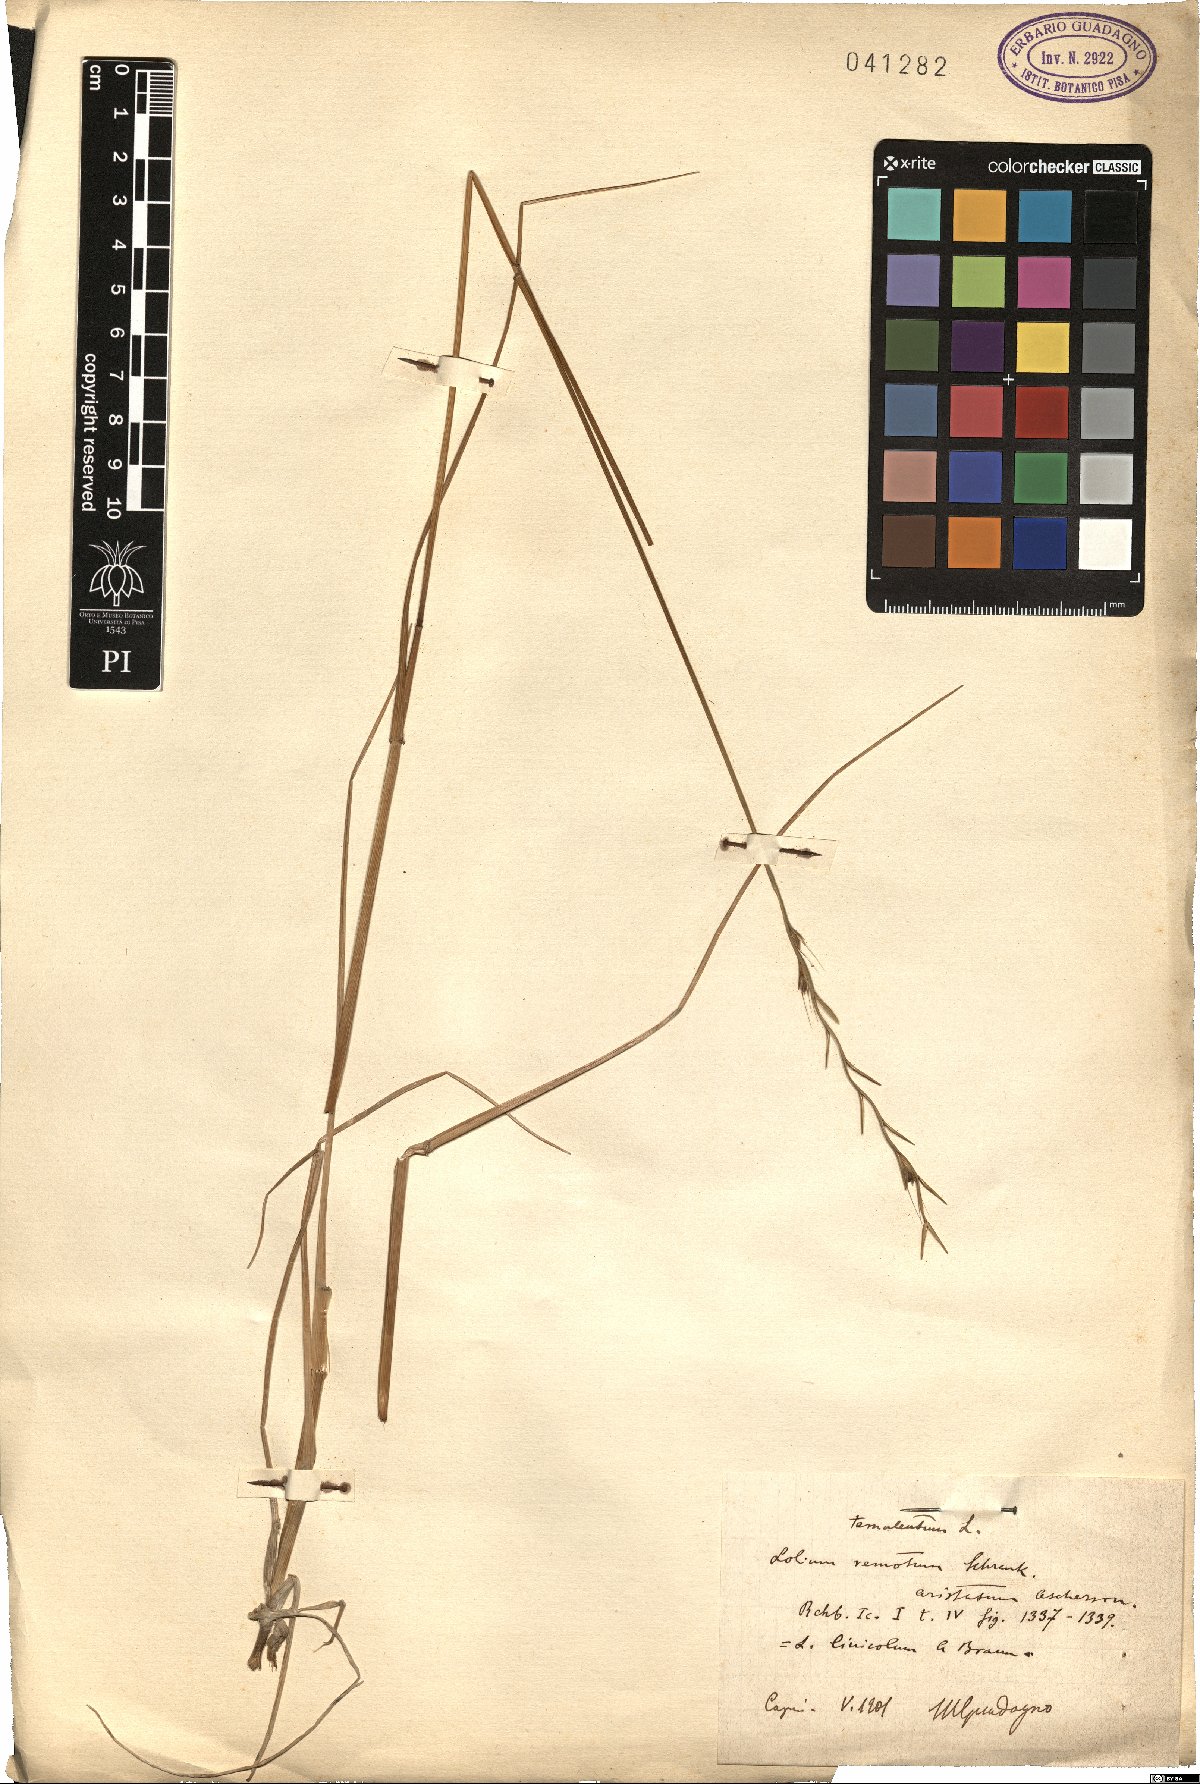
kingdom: Plantae
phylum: Tracheophyta
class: Liliopsida
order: Poales
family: Poaceae
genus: Lolium
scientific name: Lolium remotum
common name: Flaxfield rye-grass
